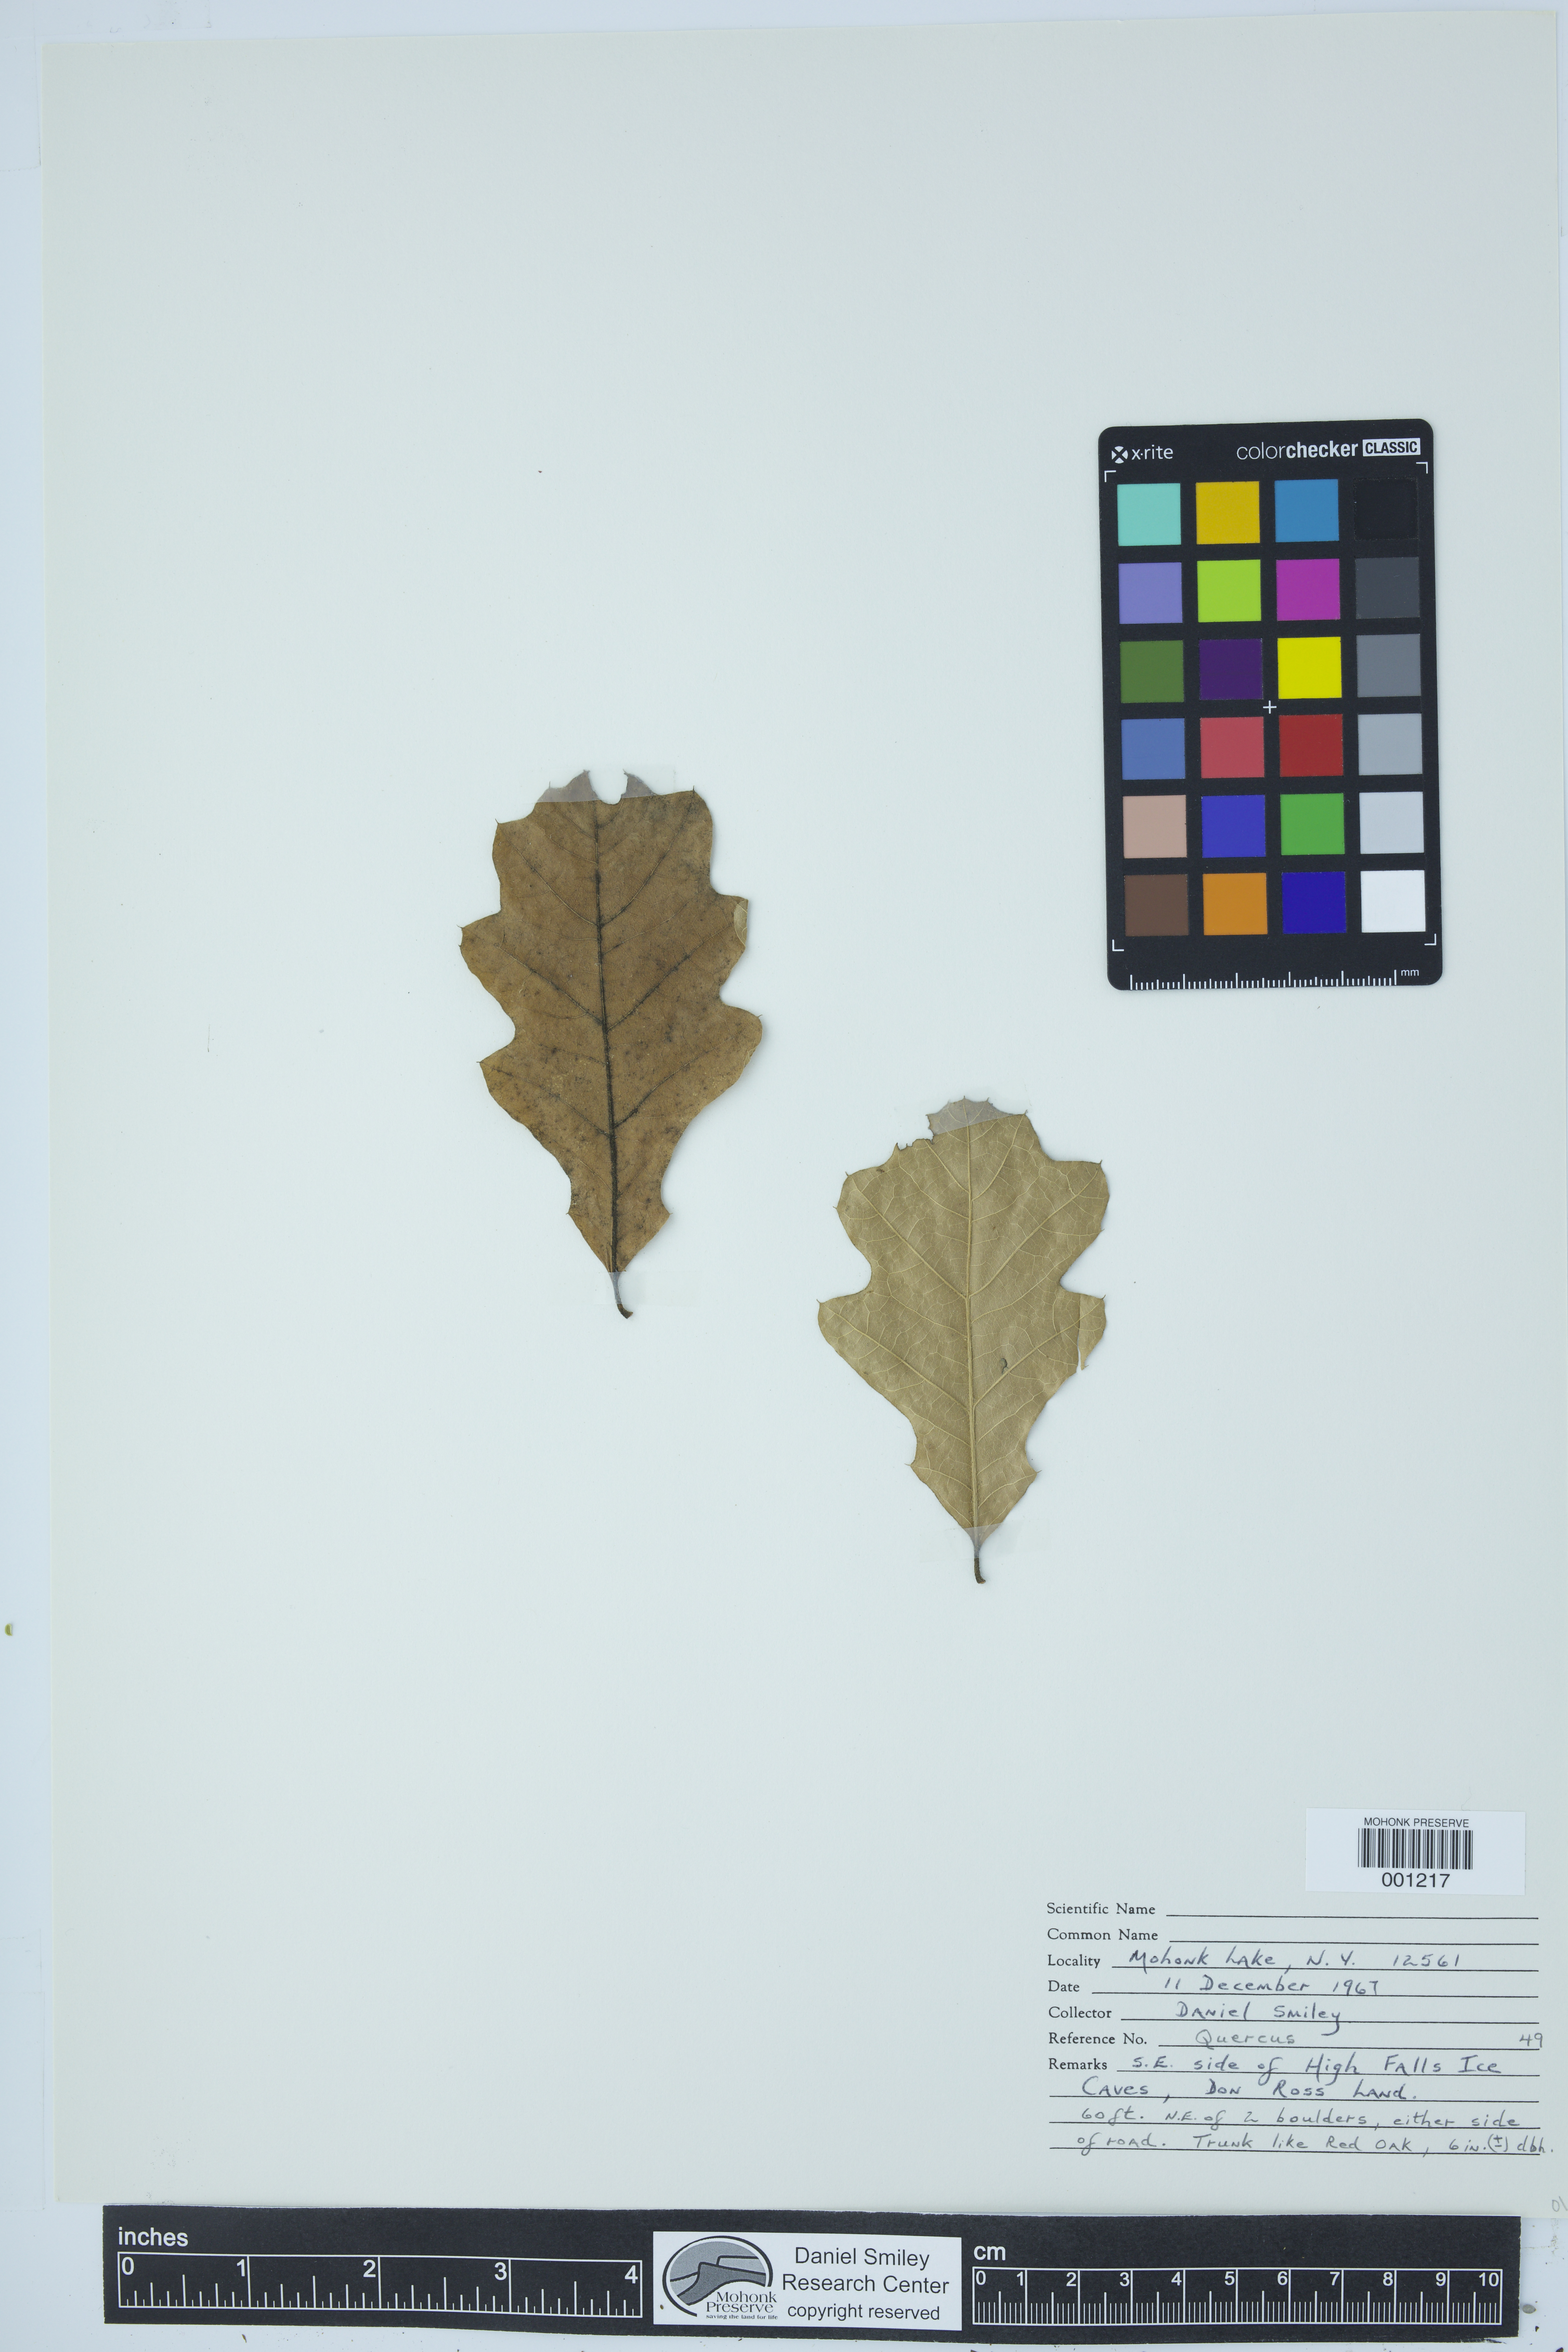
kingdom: Plantae
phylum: Tracheophyta
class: Magnoliopsida
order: Fagales
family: Fagaceae
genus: Quercus
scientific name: Quercus
